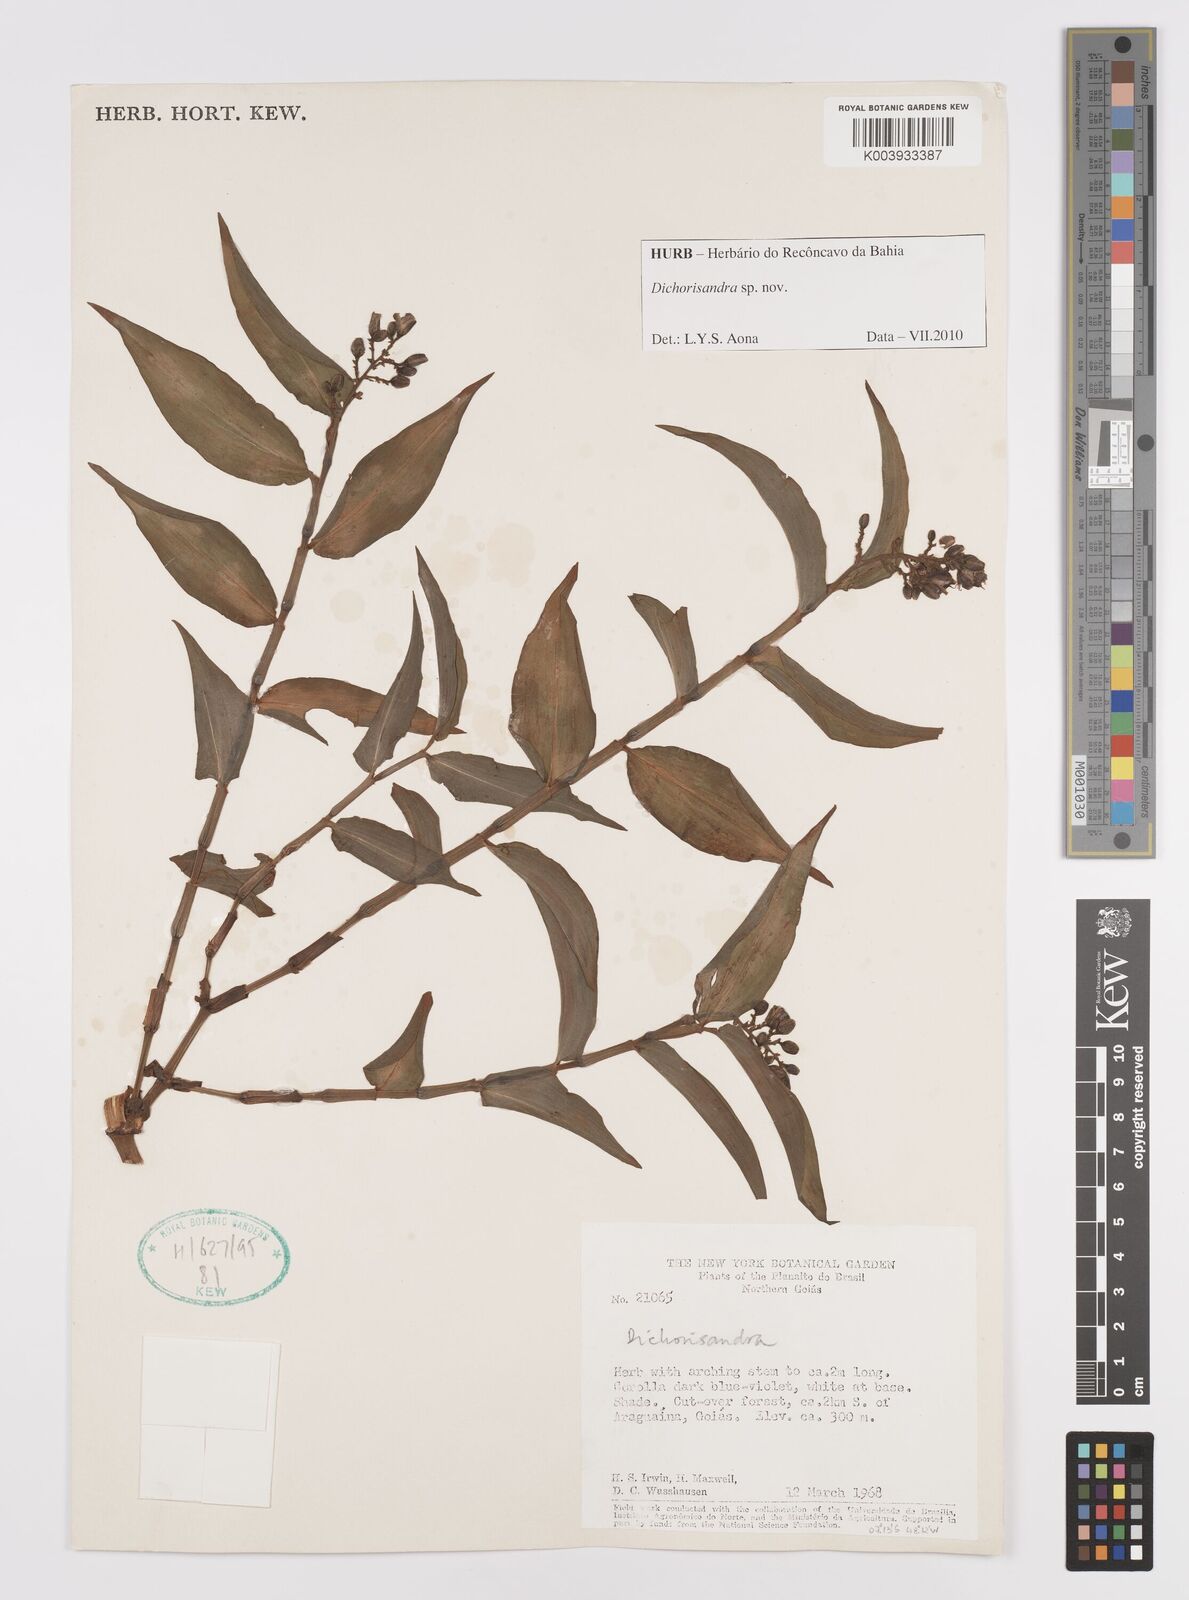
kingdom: Plantae
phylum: Tracheophyta
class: Liliopsida
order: Commelinales
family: Commelinaceae
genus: Dichorisandra
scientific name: Dichorisandra
